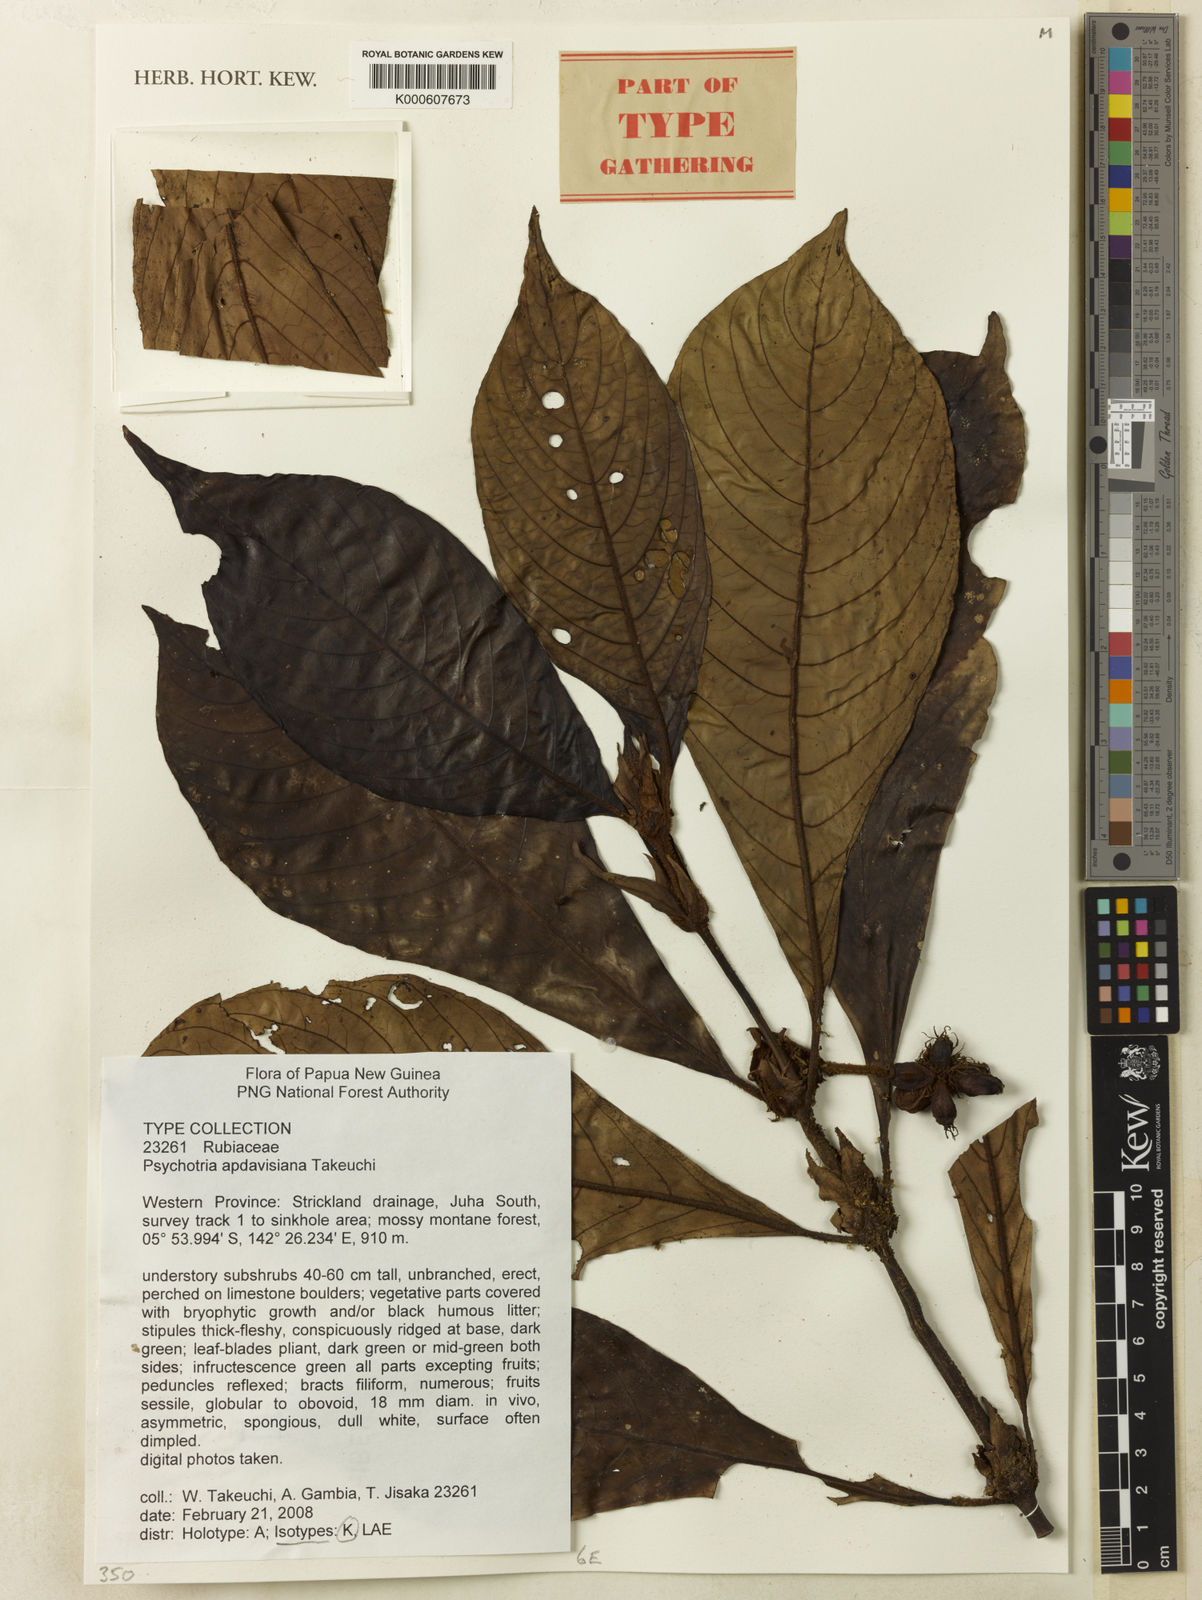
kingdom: Plantae
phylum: Tracheophyta
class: Magnoliopsida
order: Gentianales
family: Rubiaceae
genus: Psychotria
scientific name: Psychotria apdavisiana
